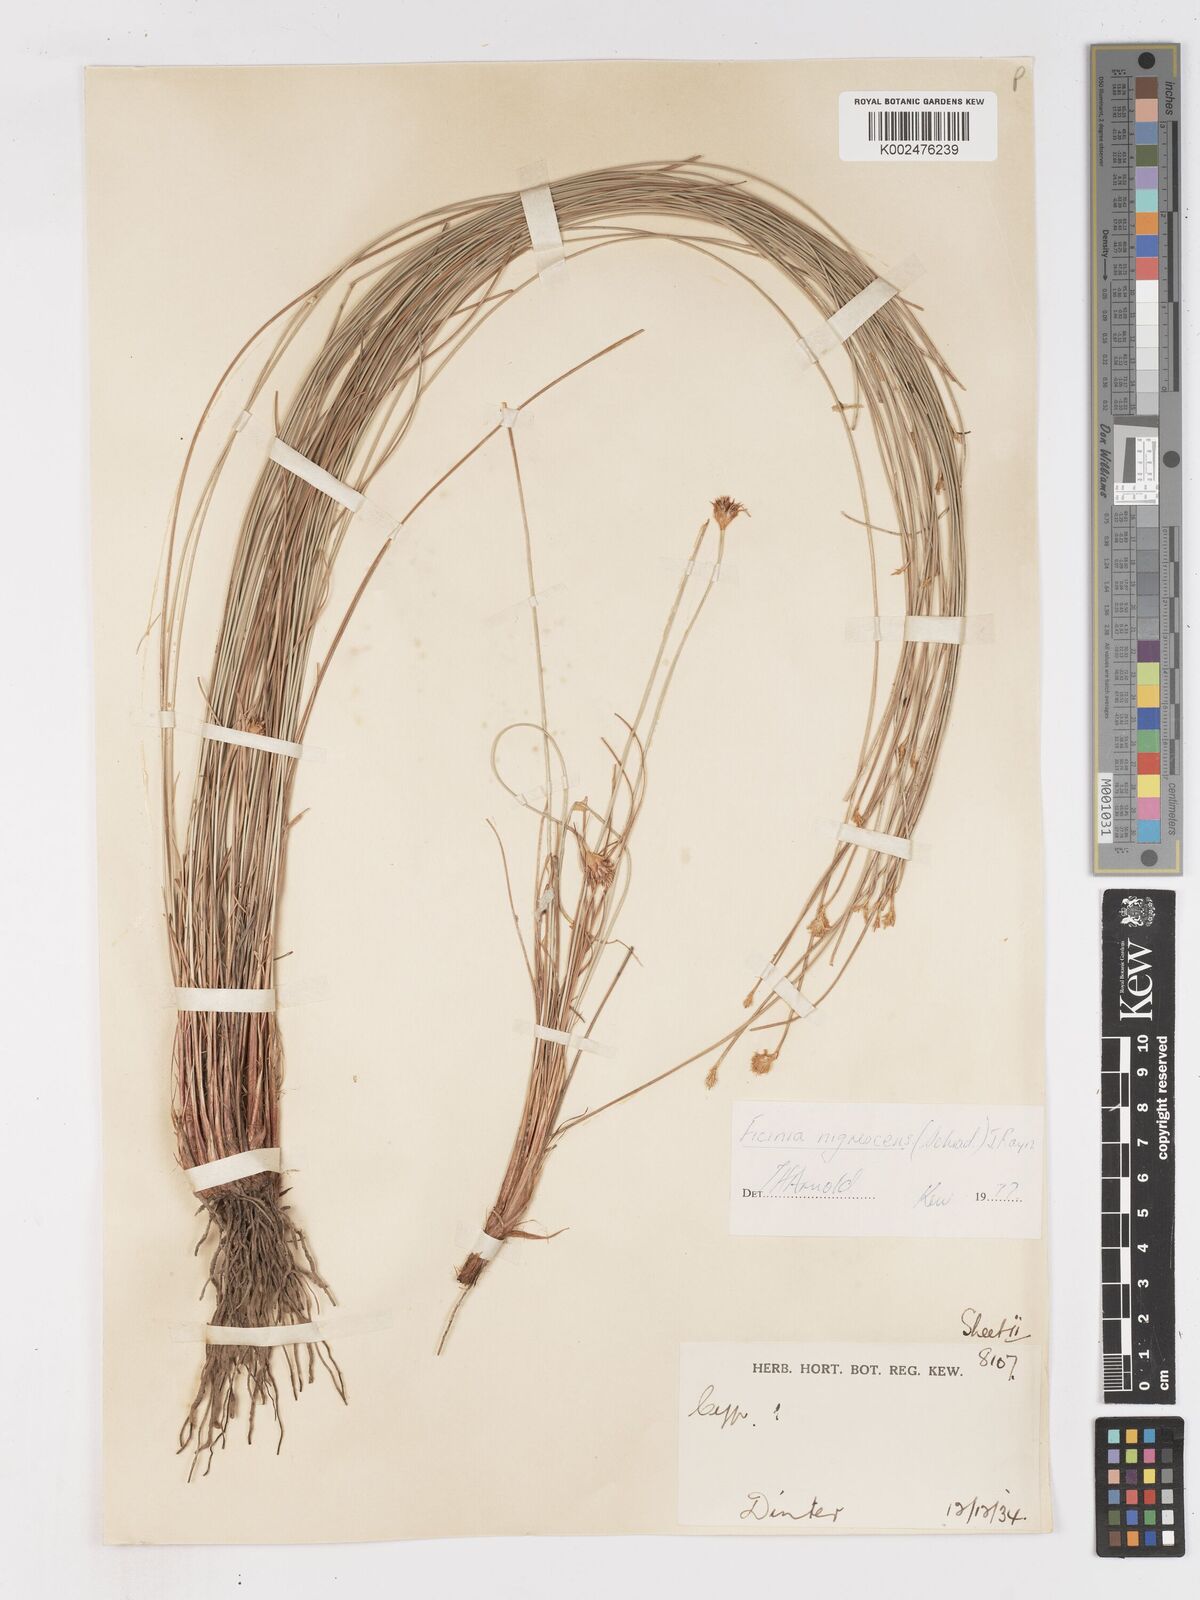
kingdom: Plantae
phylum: Tracheophyta
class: Liliopsida
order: Poales
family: Cyperaceae
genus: Ficinia
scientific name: Ficinia nigrescens
